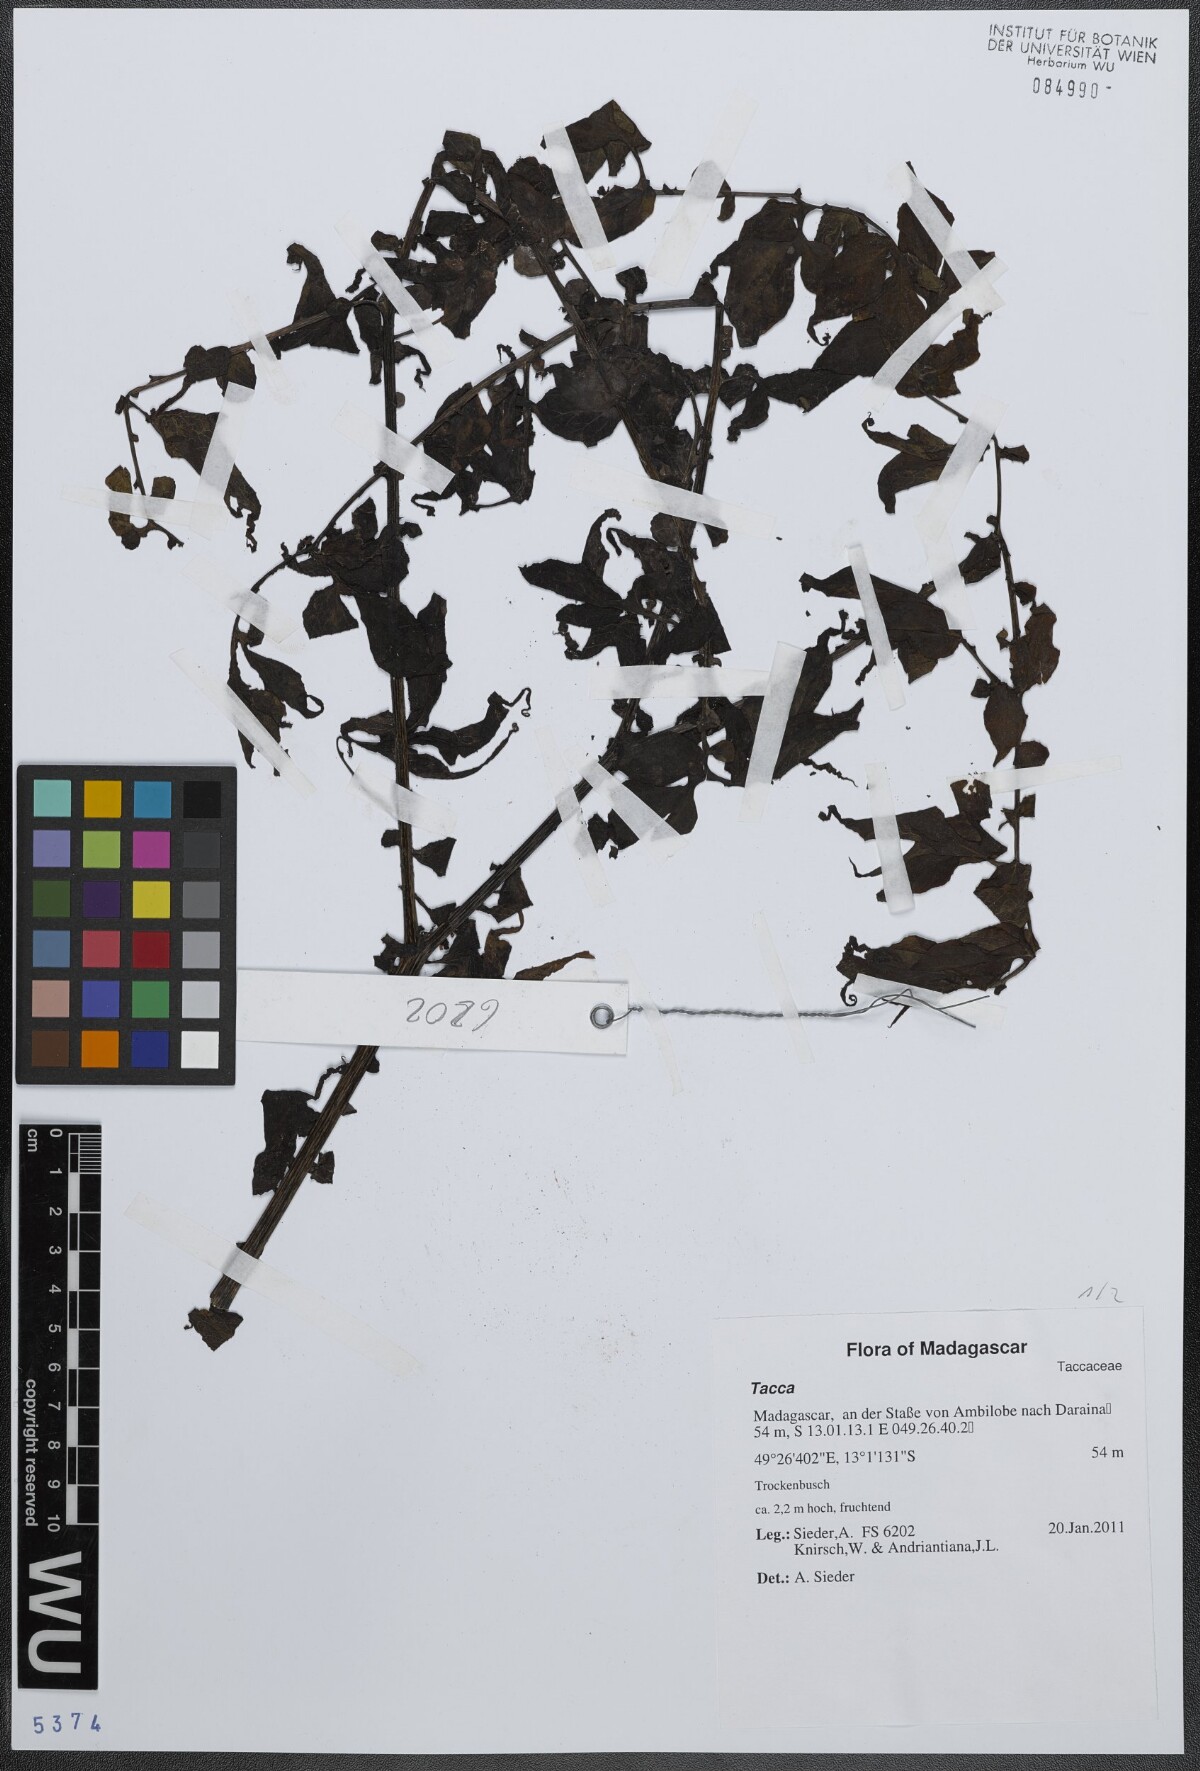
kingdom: Plantae
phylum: Tracheophyta
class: Liliopsida
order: Dioscoreales
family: Dioscoreaceae
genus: Tacca
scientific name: Tacca
